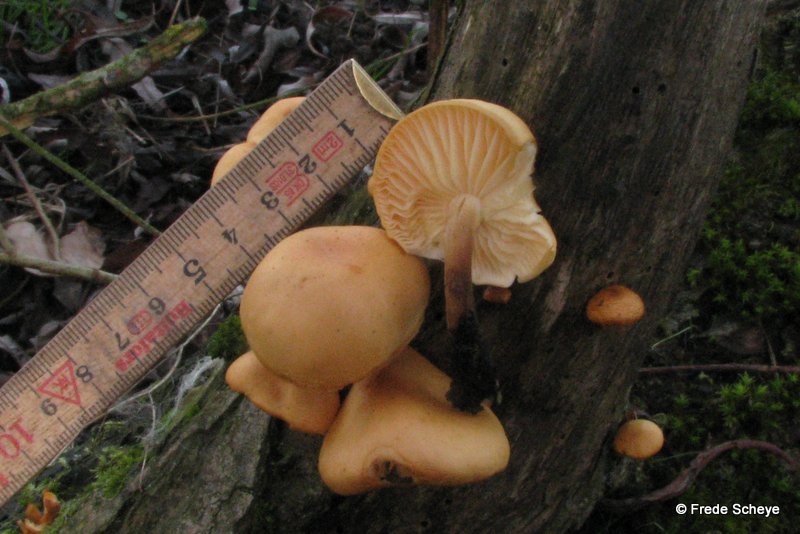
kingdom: Fungi
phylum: Basidiomycota
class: Agaricomycetes
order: Agaricales
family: Physalacriaceae
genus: Flammulina
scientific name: Flammulina elastica
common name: pile-fløjlsfod
